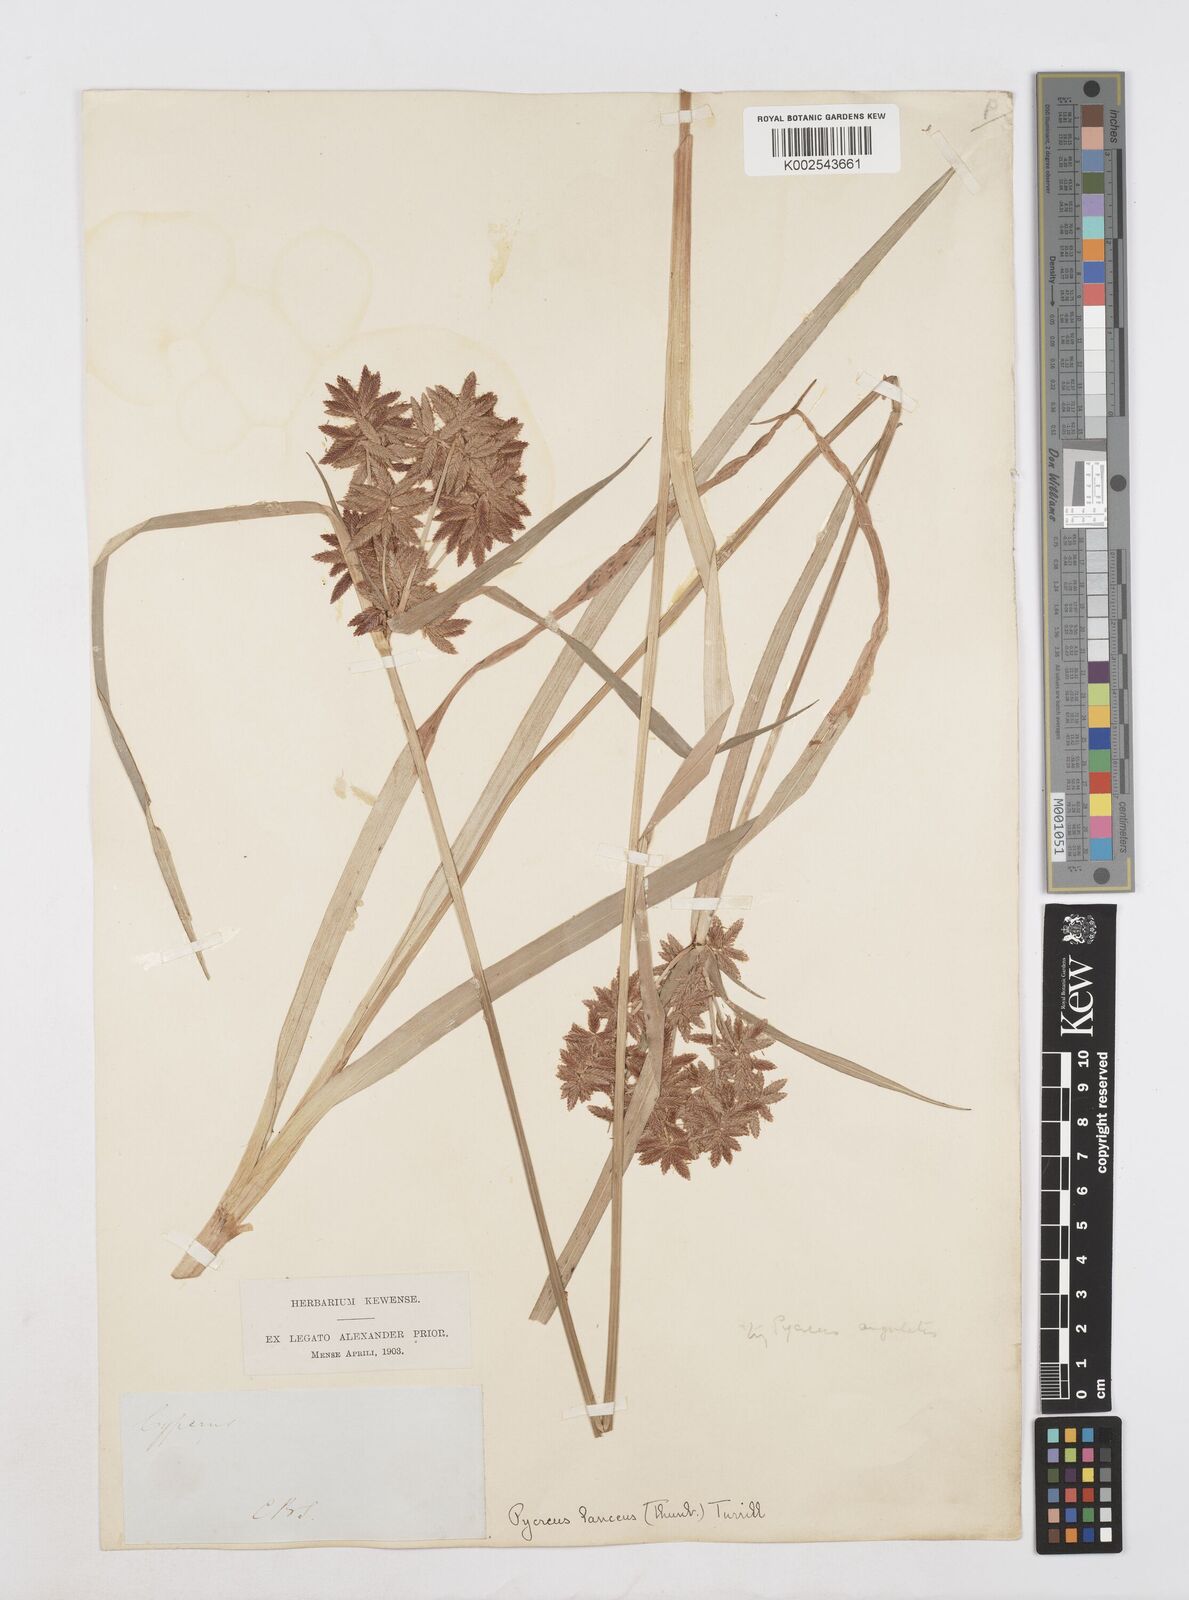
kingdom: Plantae
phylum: Tracheophyta
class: Liliopsida
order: Poales
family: Cyperaceae
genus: Cyperus
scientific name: Cyperus nitidus
